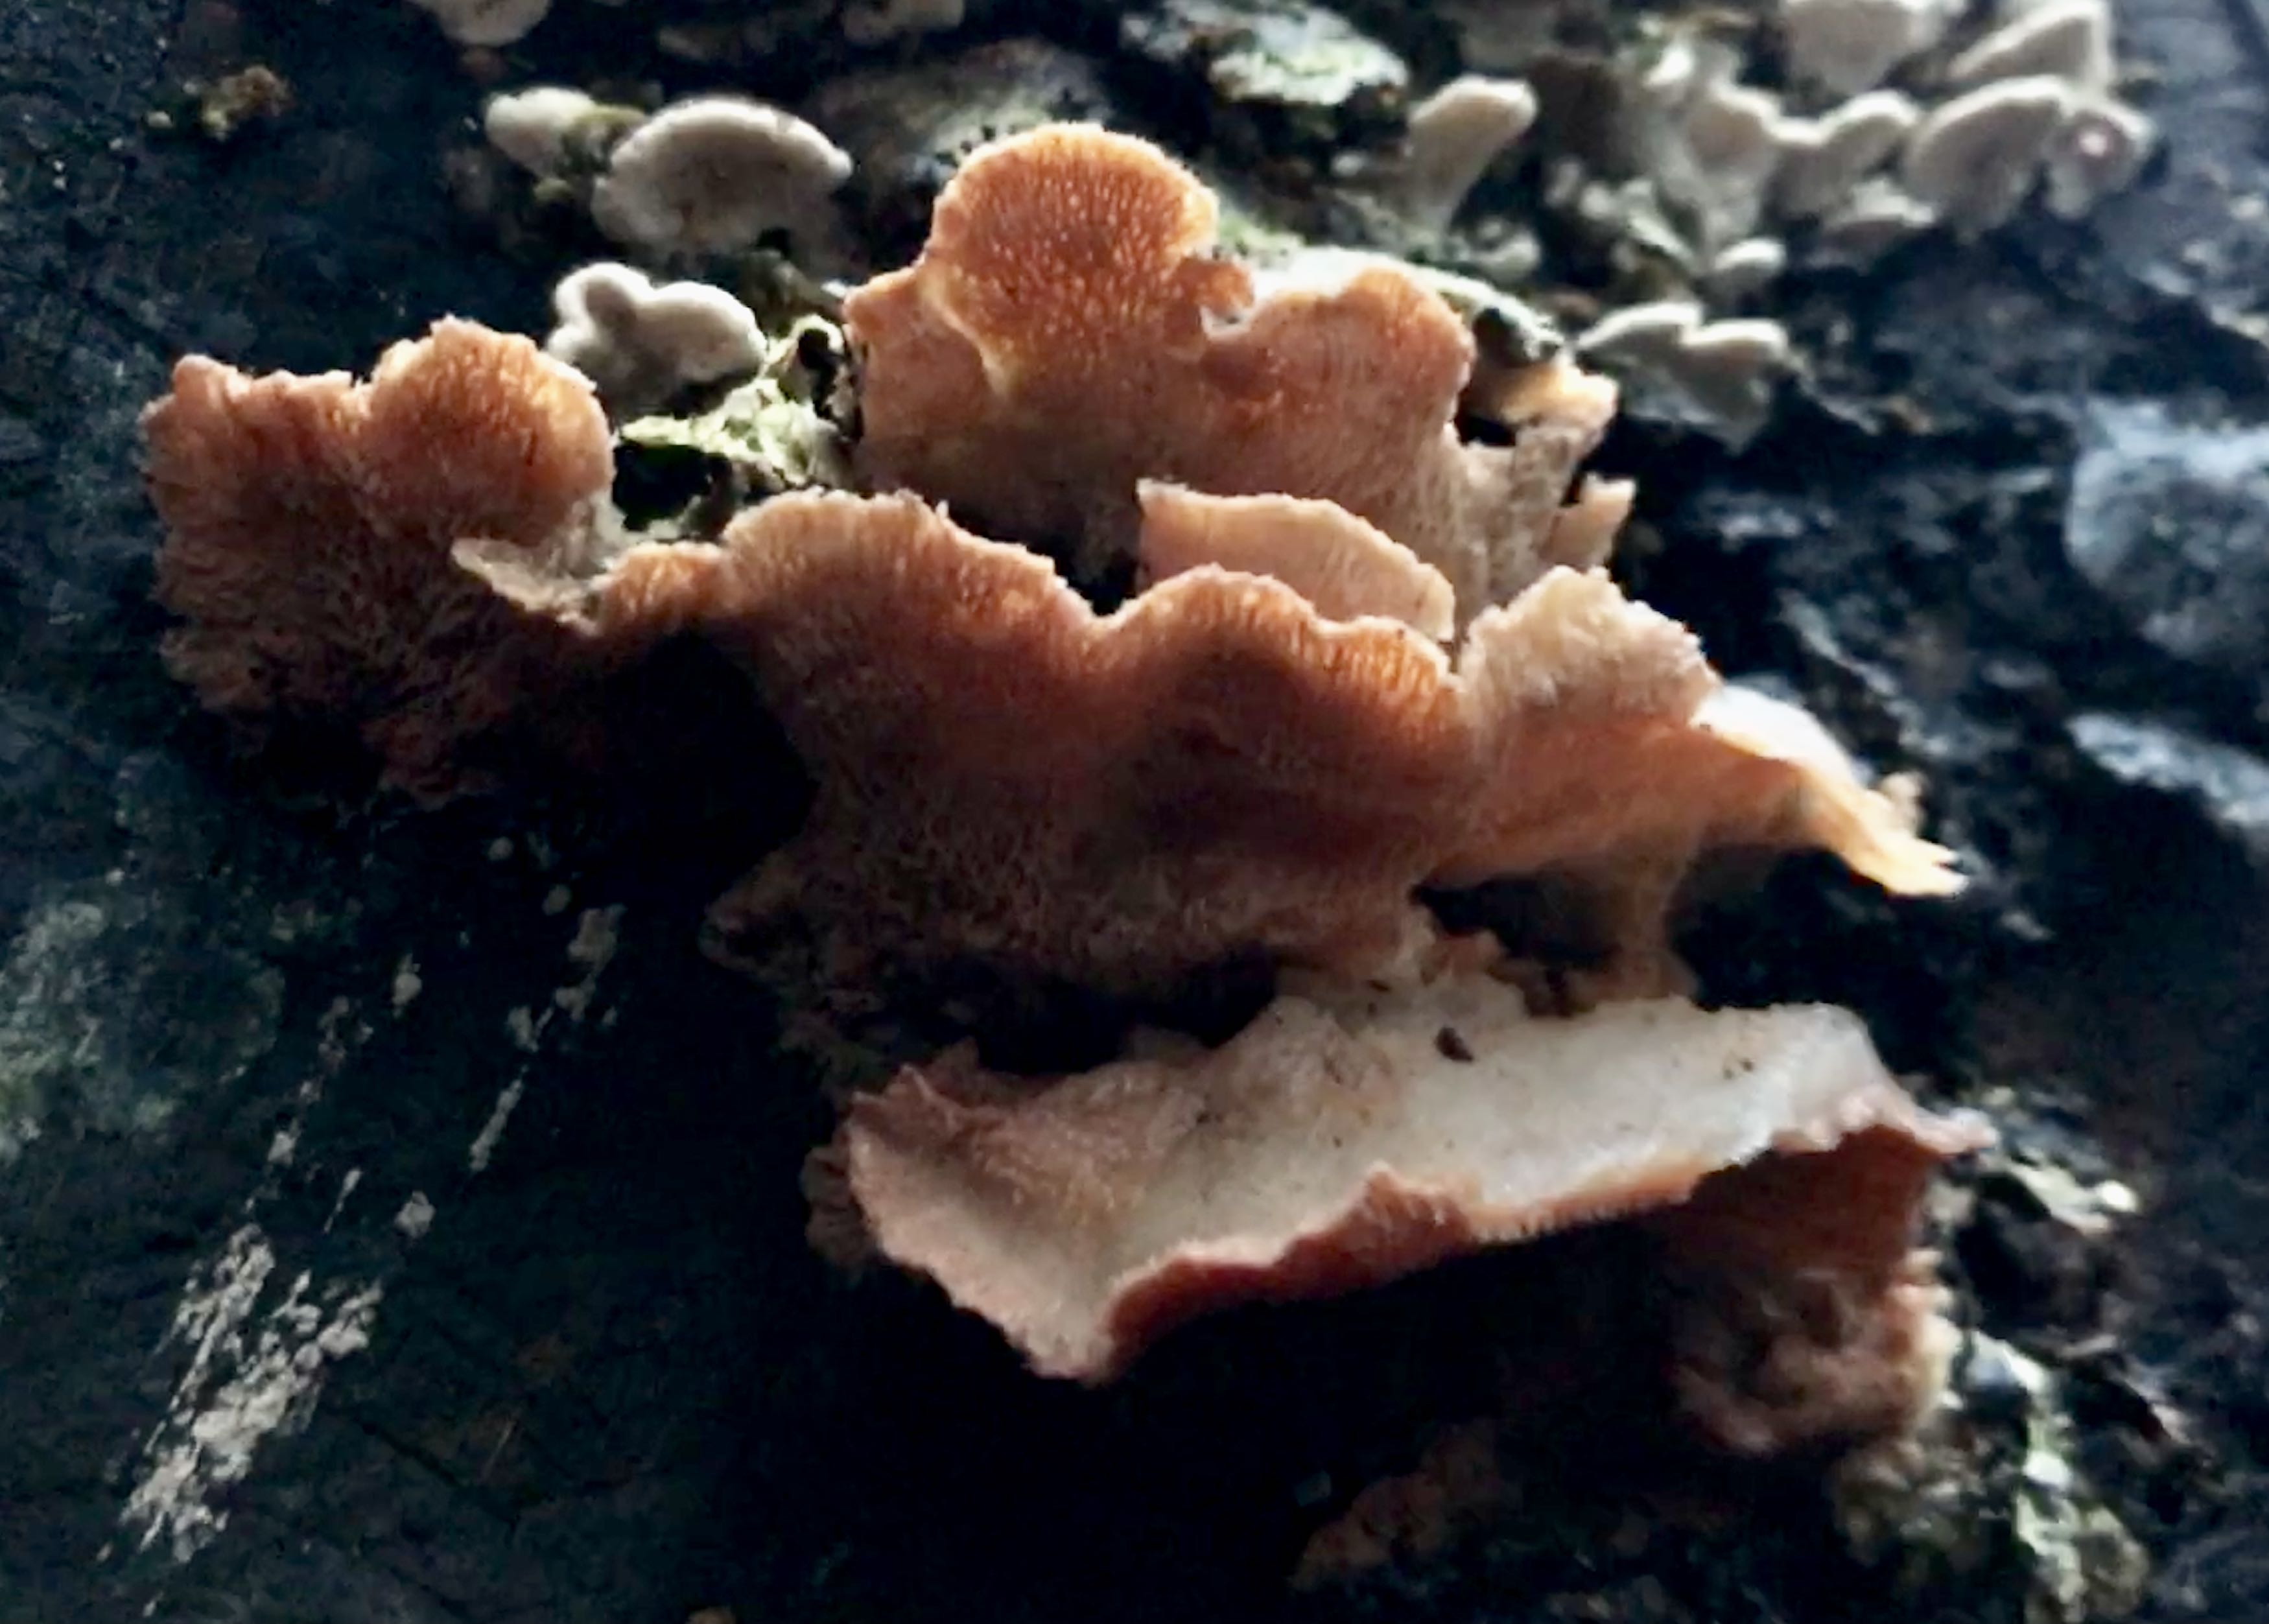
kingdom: Fungi
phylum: Basidiomycota
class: Agaricomycetes
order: Polyporales
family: Meruliaceae
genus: Phlebia
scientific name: Phlebia tremellosa
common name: bævrende åresvamp
